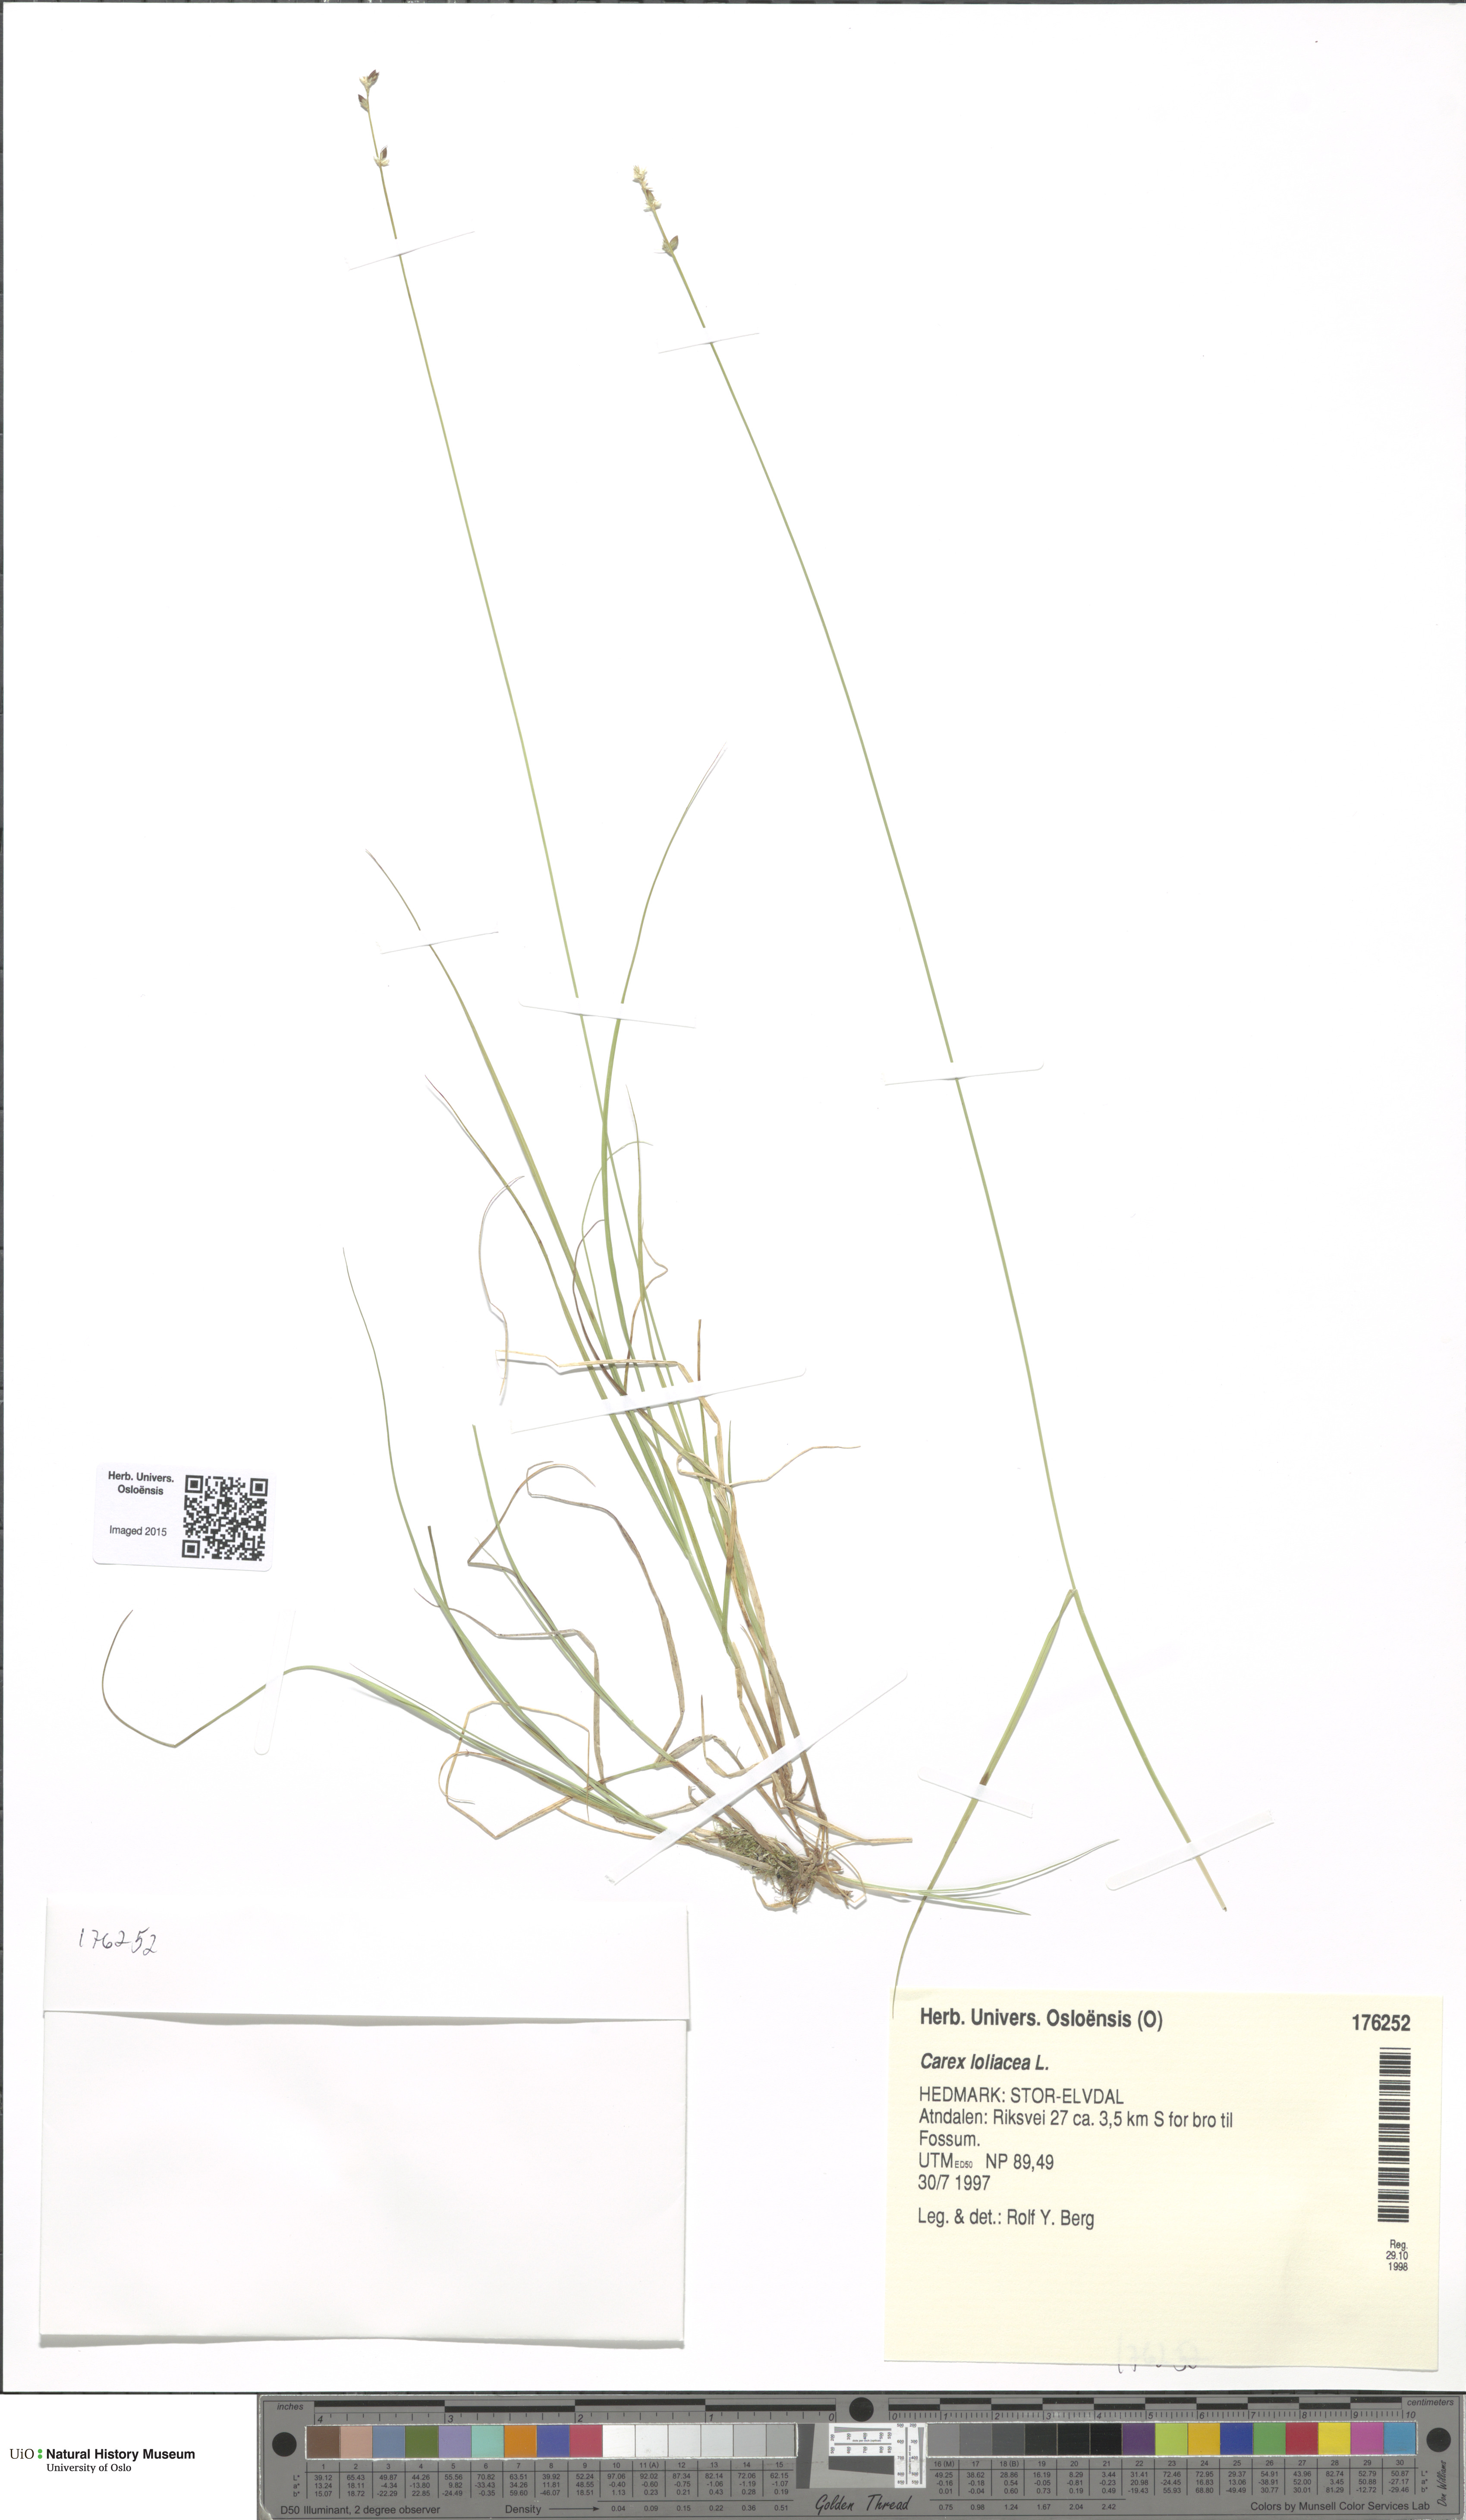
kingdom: Plantae
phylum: Tracheophyta
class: Liliopsida
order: Poales
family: Cyperaceae
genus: Carex
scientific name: Carex loliacea
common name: Ryegrass sedge
